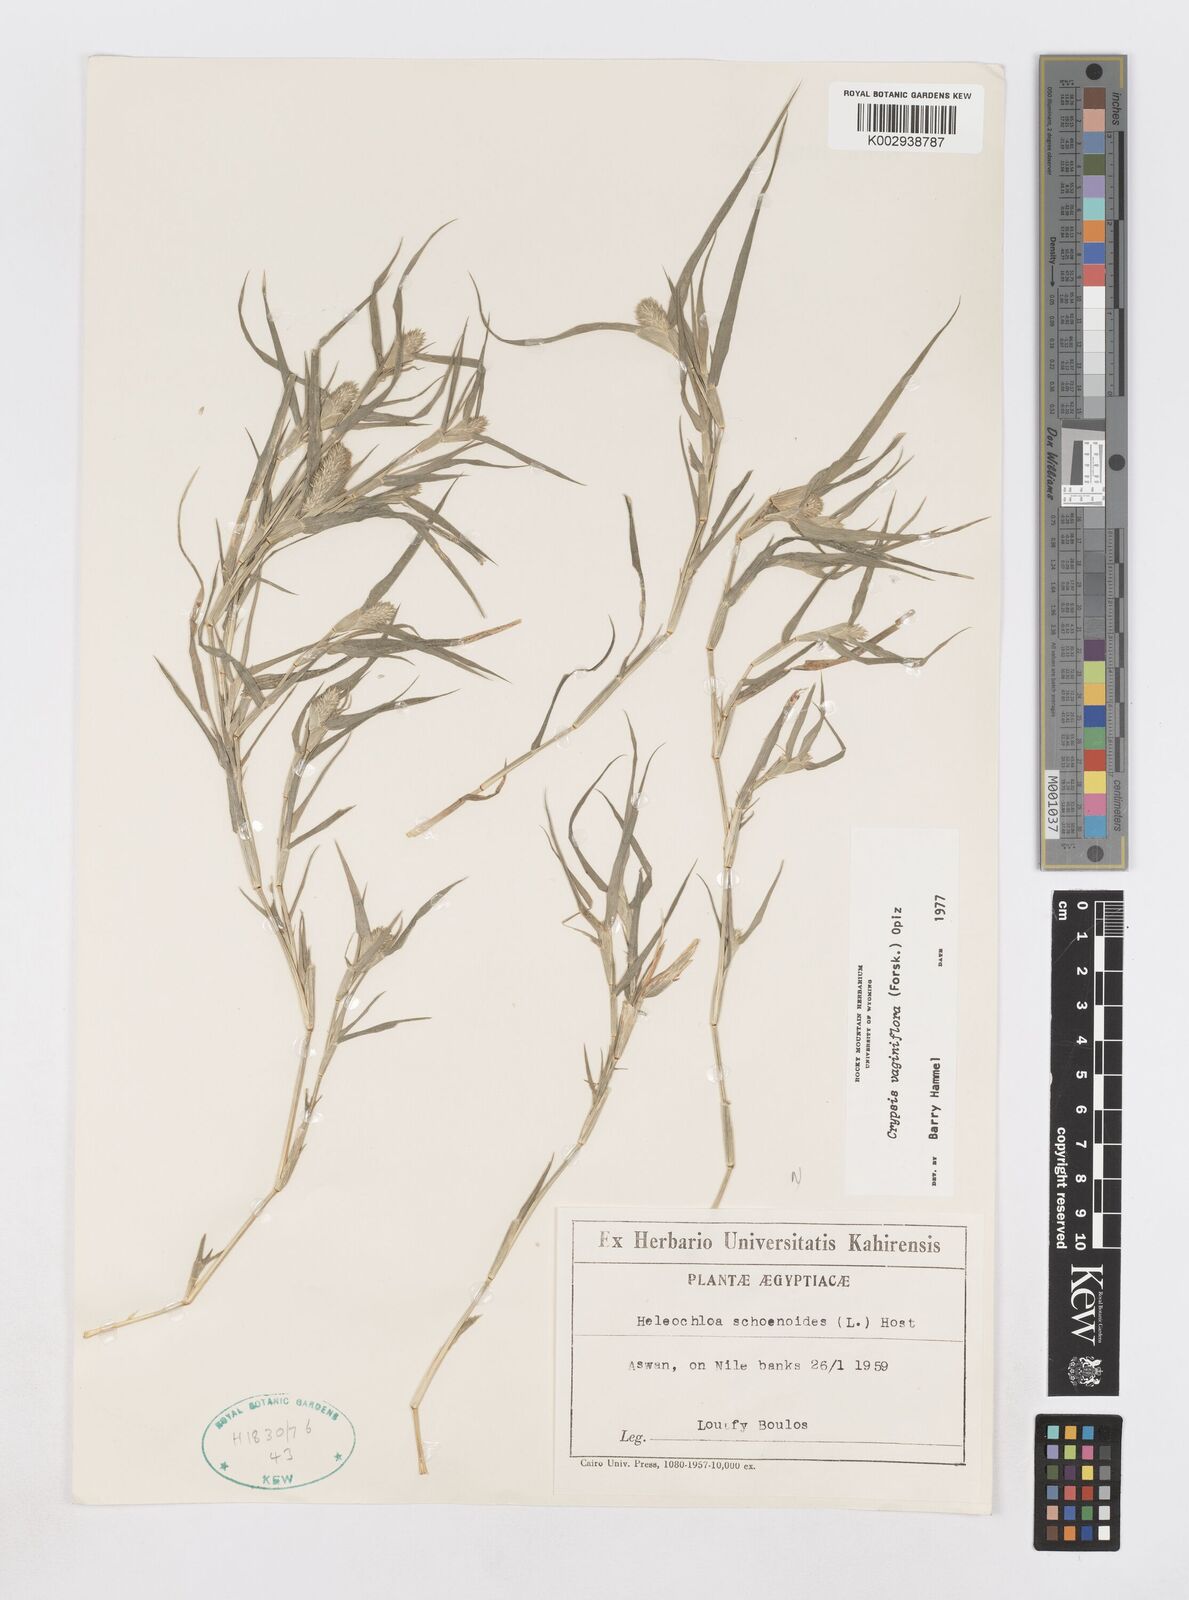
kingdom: Plantae
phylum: Tracheophyta
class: Liliopsida
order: Poales
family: Poaceae
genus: Sporobolus
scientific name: Sporobolus niliacus
